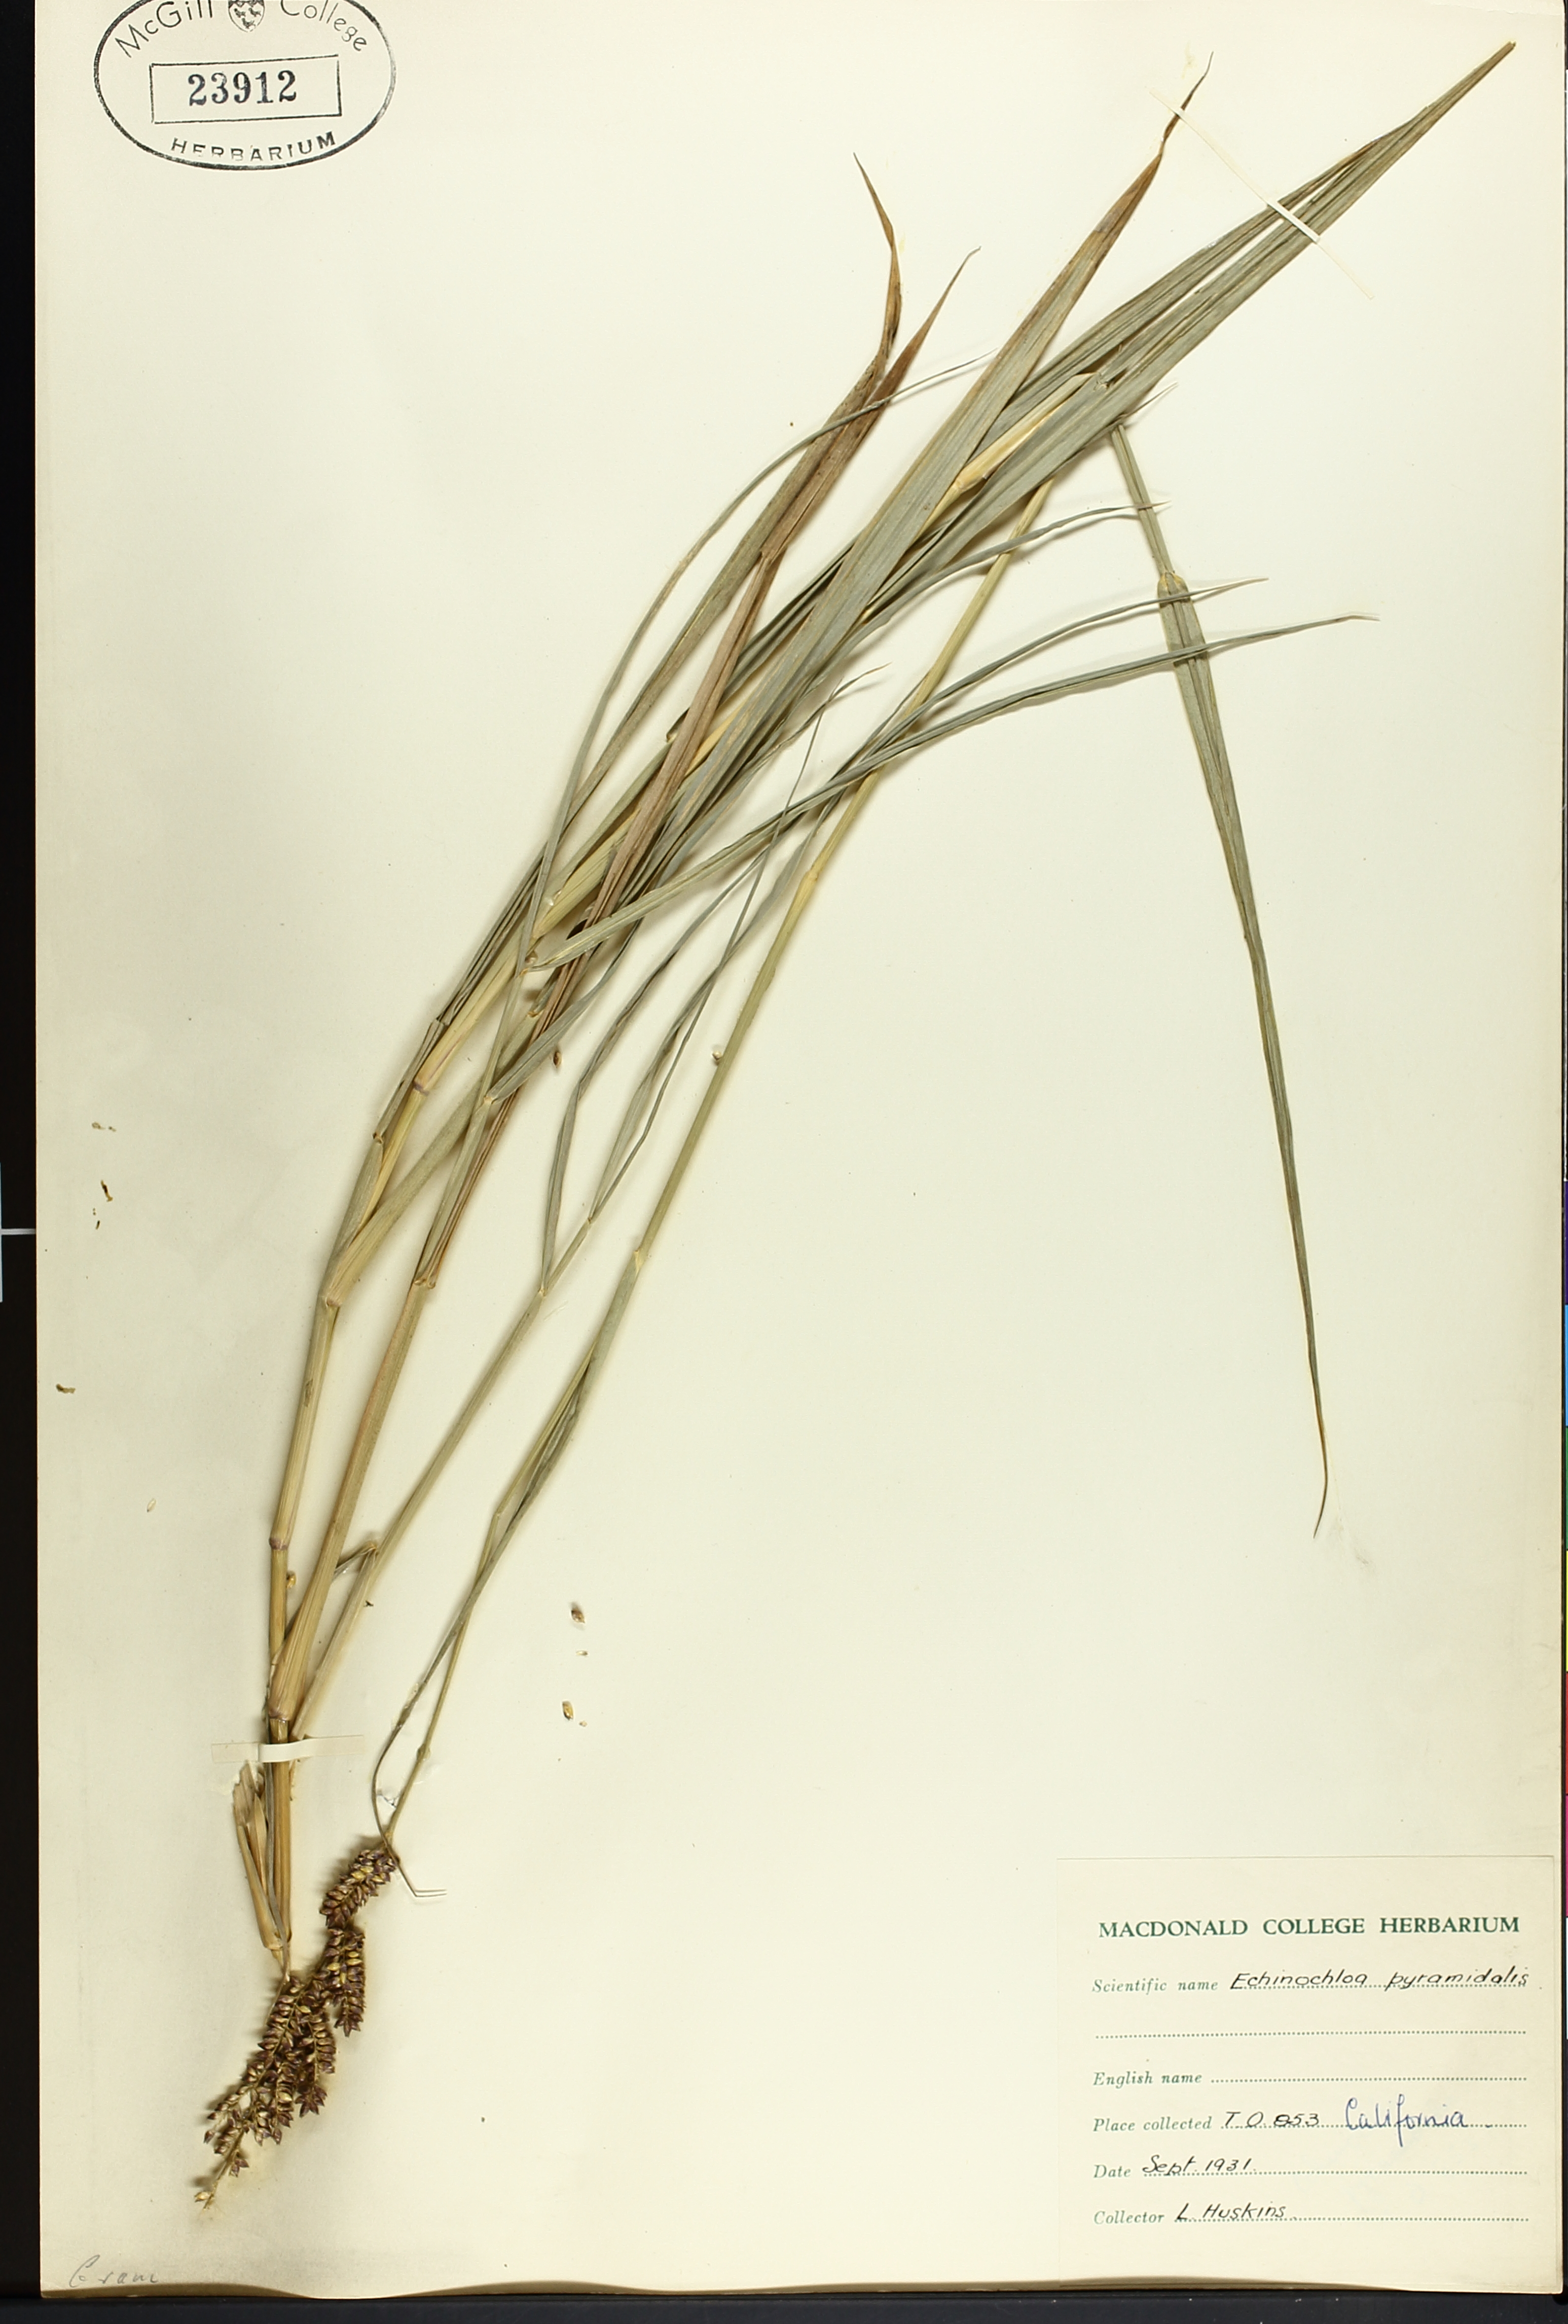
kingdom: Plantae
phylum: Tracheophyta
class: Liliopsida
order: Poales
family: Poaceae
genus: Echinochloa
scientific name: Echinochloa pyramidalis
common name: Antelope grass
